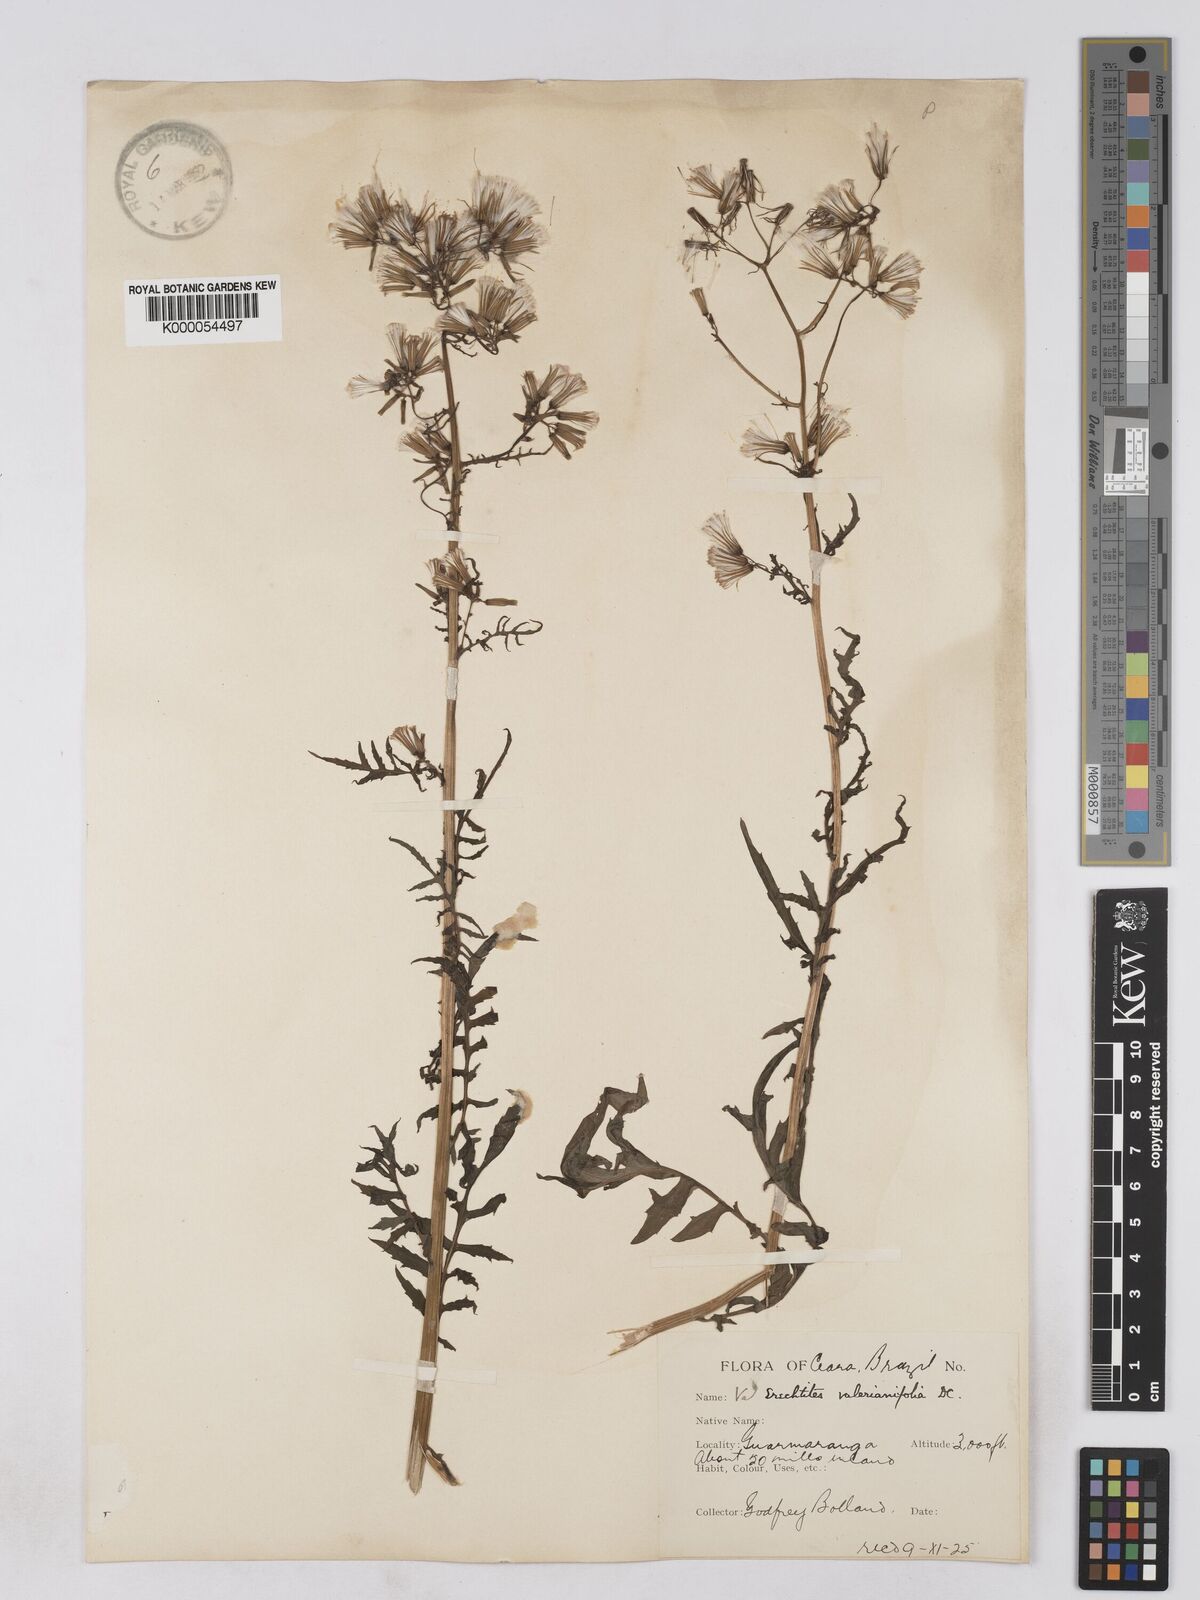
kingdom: Plantae
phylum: Tracheophyta
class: Magnoliopsida
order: Asterales
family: Asteraceae
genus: Erechtites
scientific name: Erechtites valerianifolius
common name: Tropical burnweed
